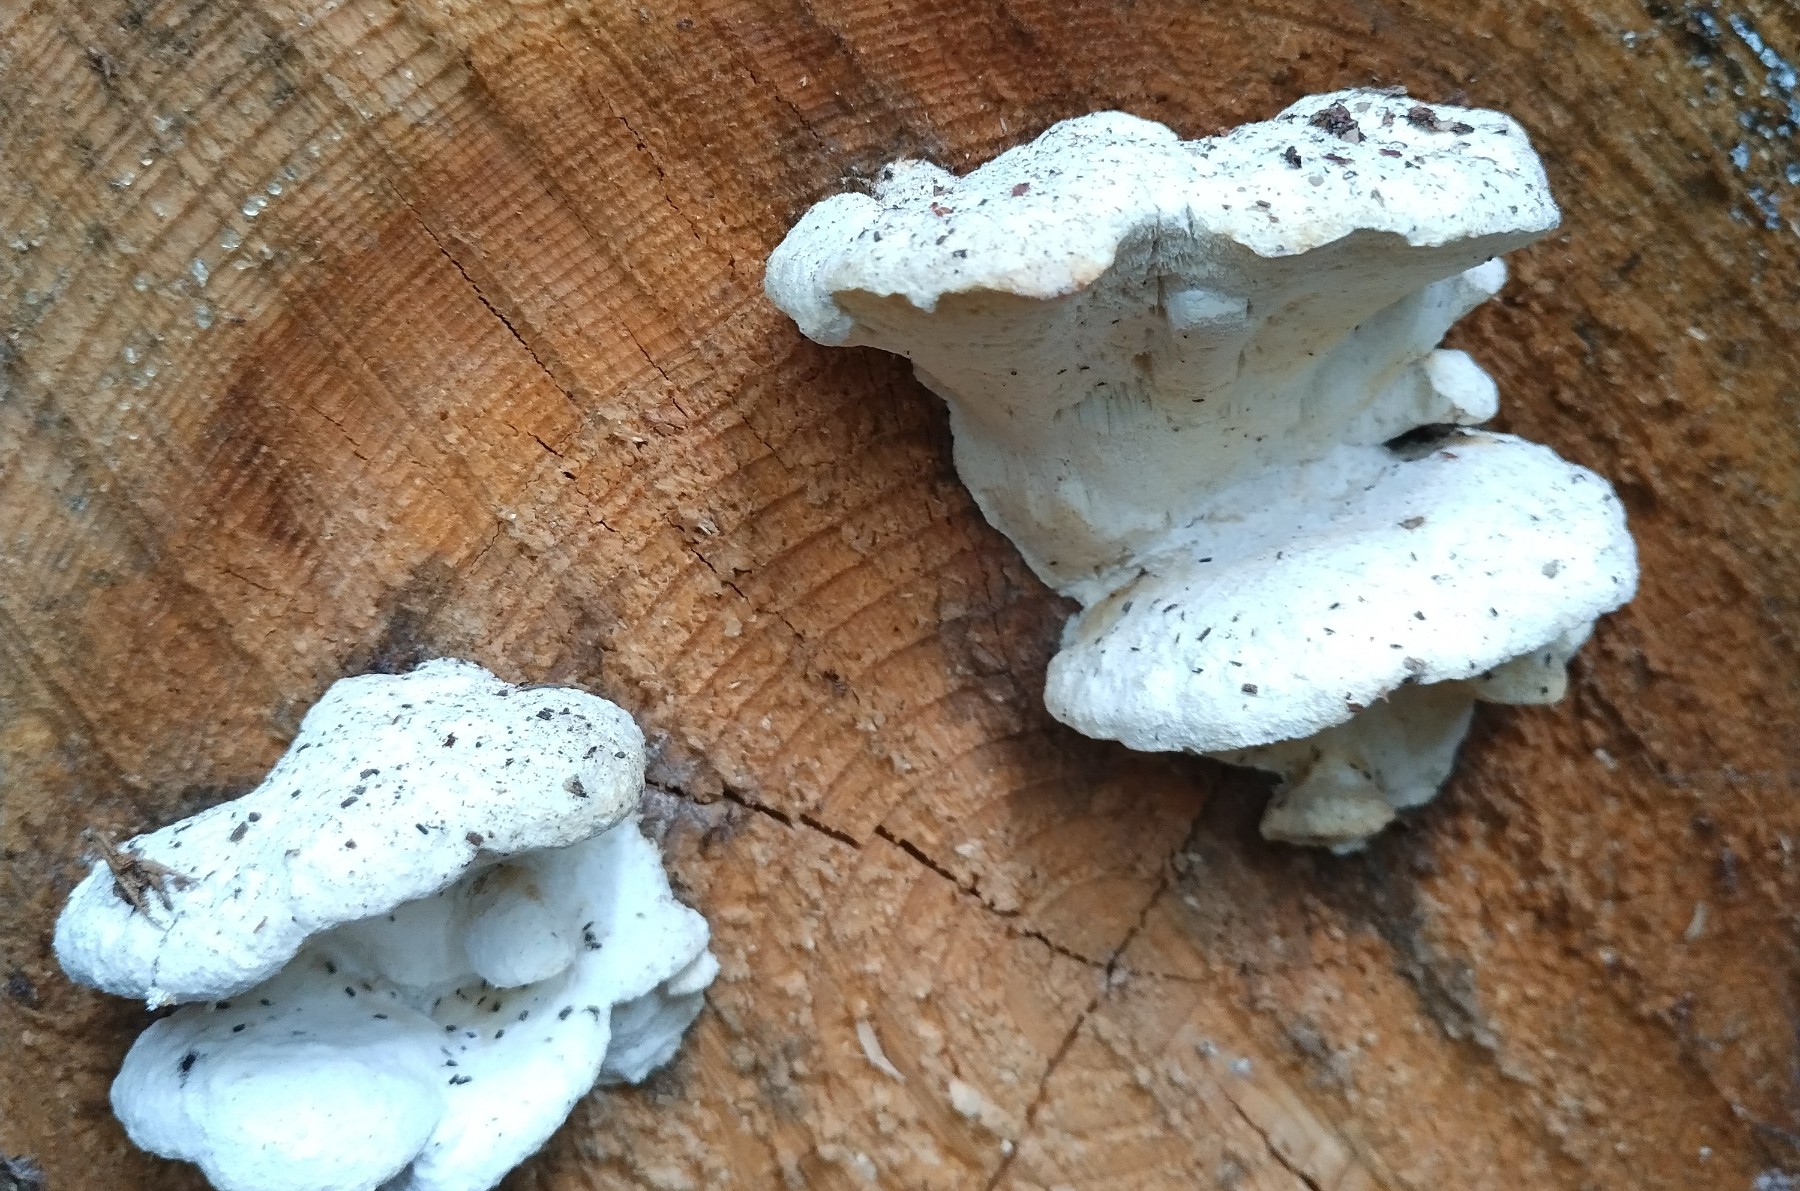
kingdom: Fungi
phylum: Basidiomycota
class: Agaricomycetes
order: Polyporales
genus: Amaropostia
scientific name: Amaropostia stiptica
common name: bitter kødporesvamp
